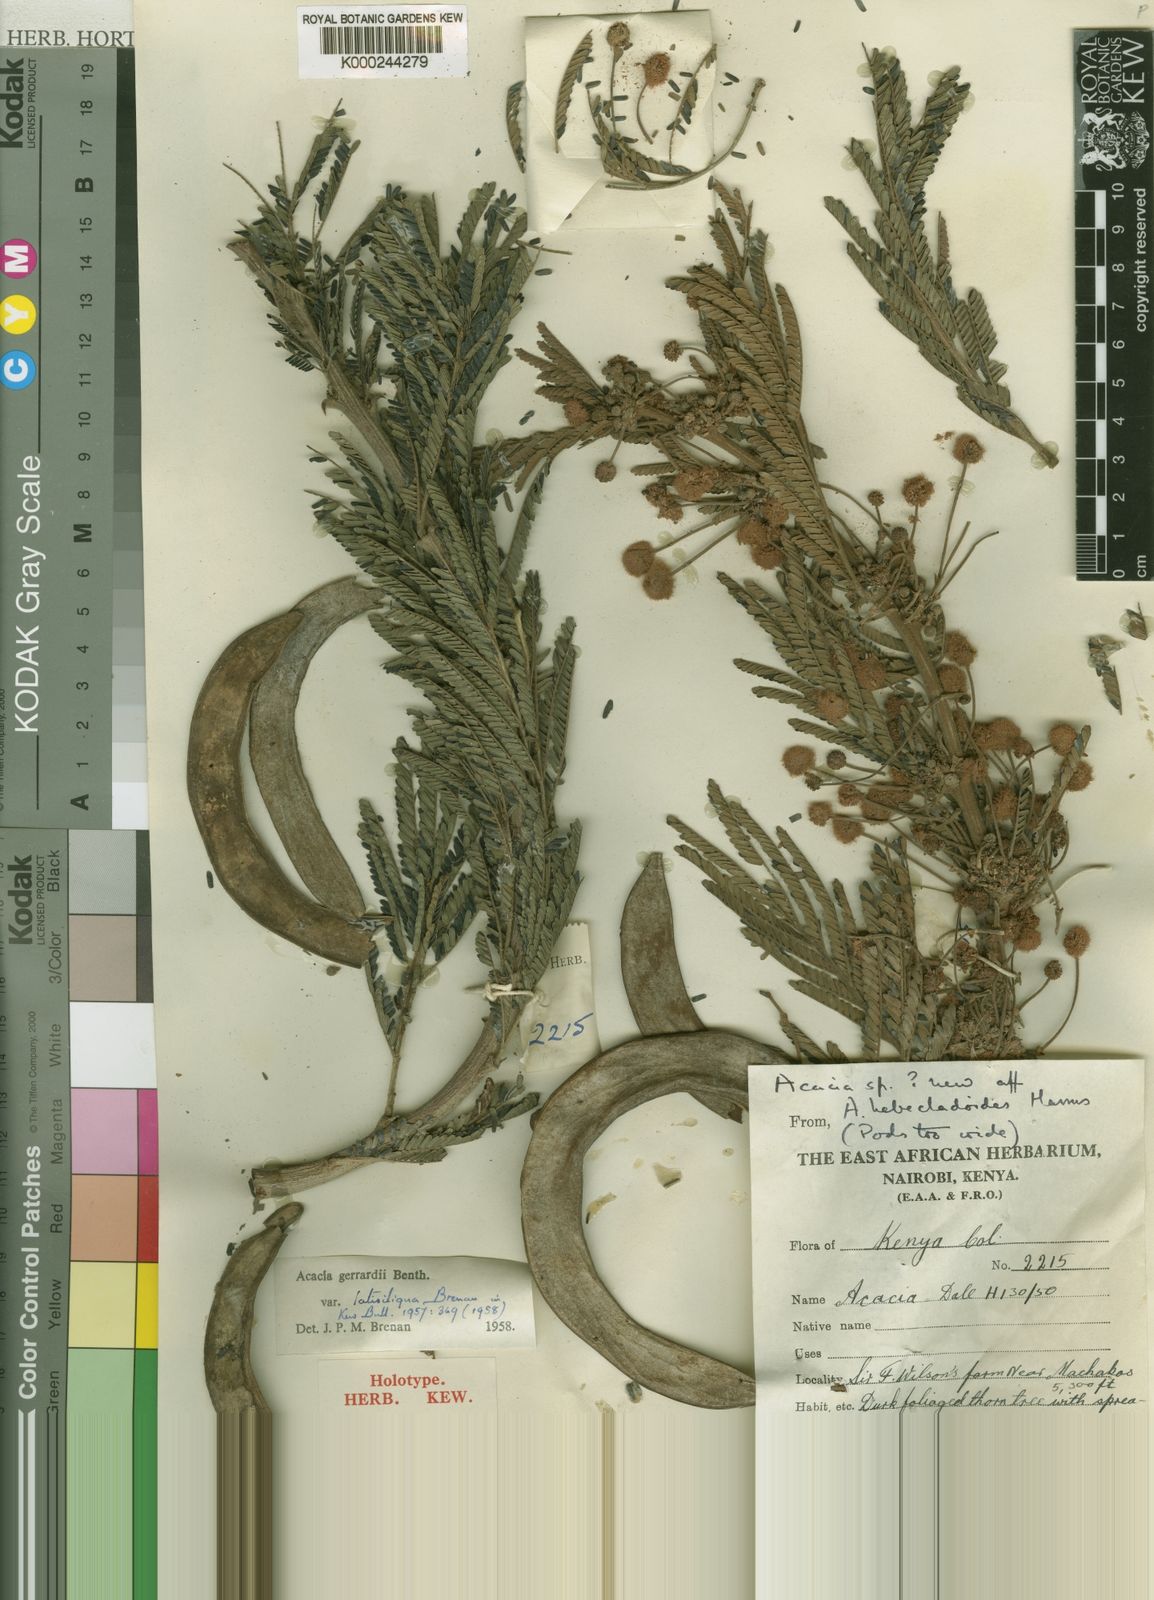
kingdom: Plantae
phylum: Tracheophyta
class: Magnoliopsida
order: Fabales
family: Fabaceae
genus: Acacia
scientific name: Acacia
